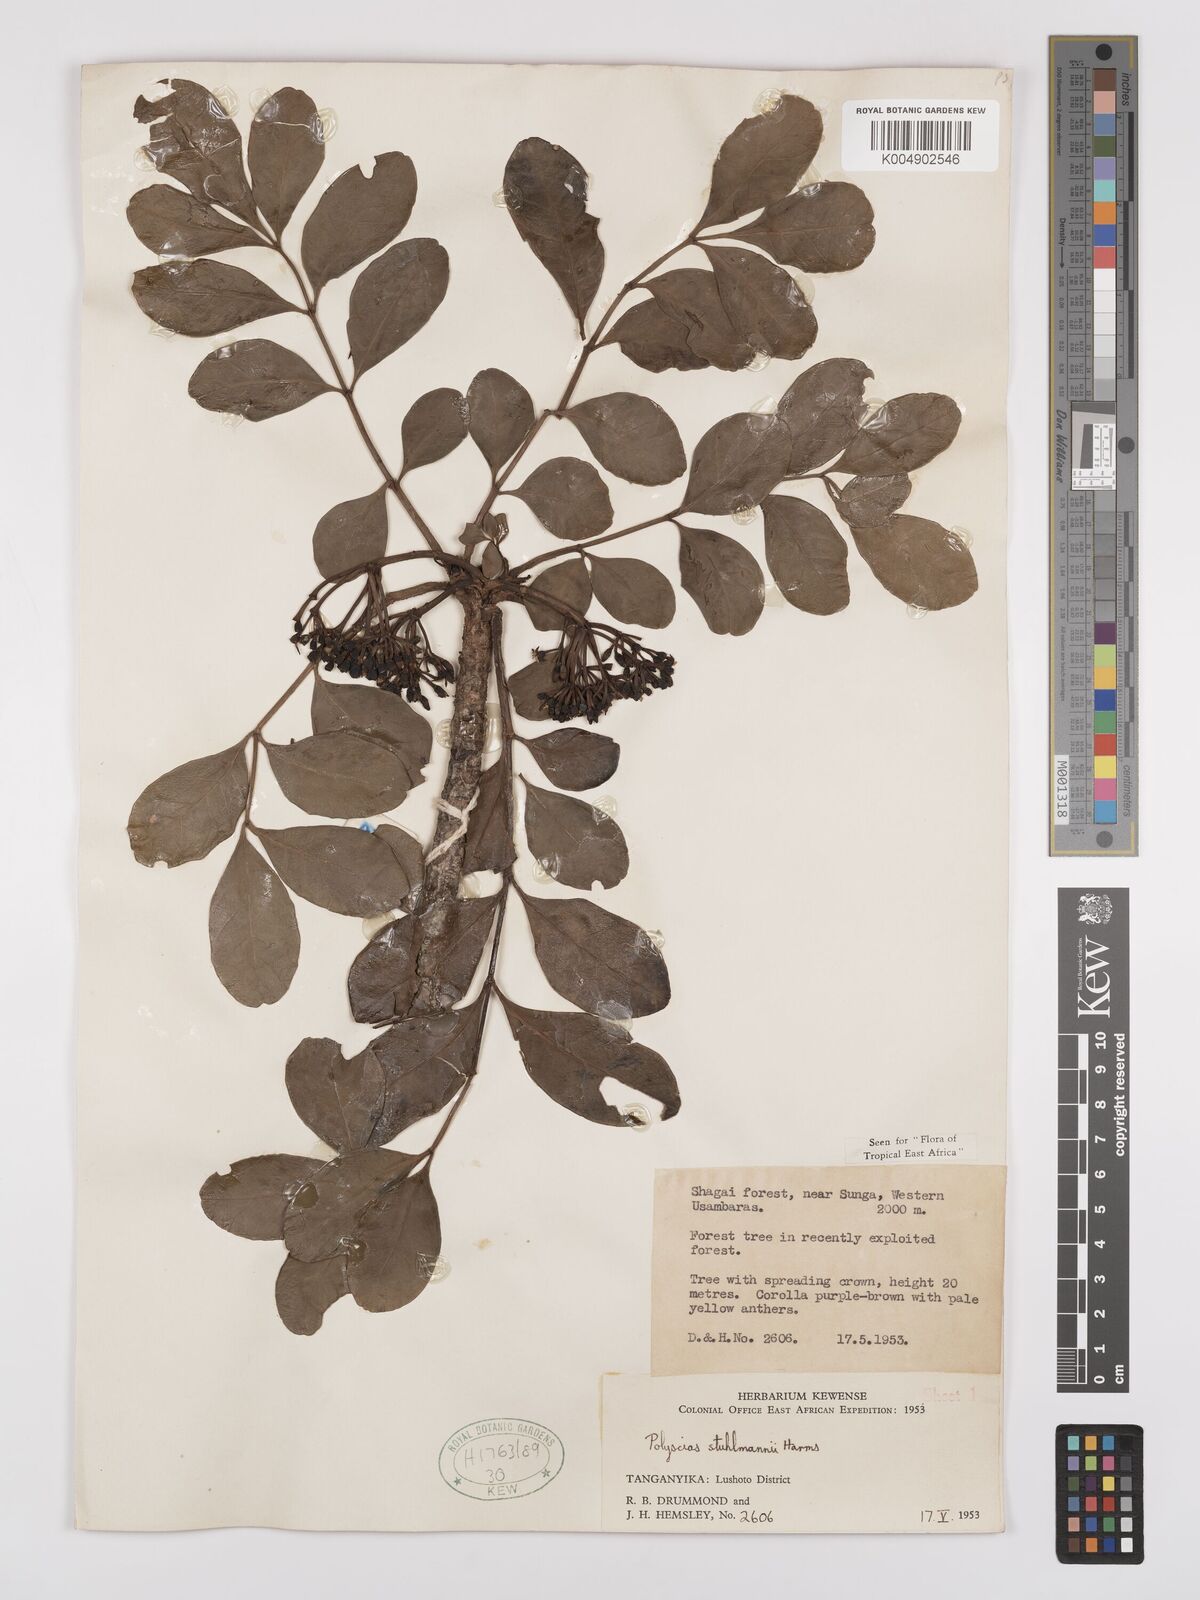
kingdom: Plantae
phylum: Tracheophyta
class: Magnoliopsida
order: Apiales
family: Araliaceae
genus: Polyscias
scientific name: Polyscias stuhlmannii
